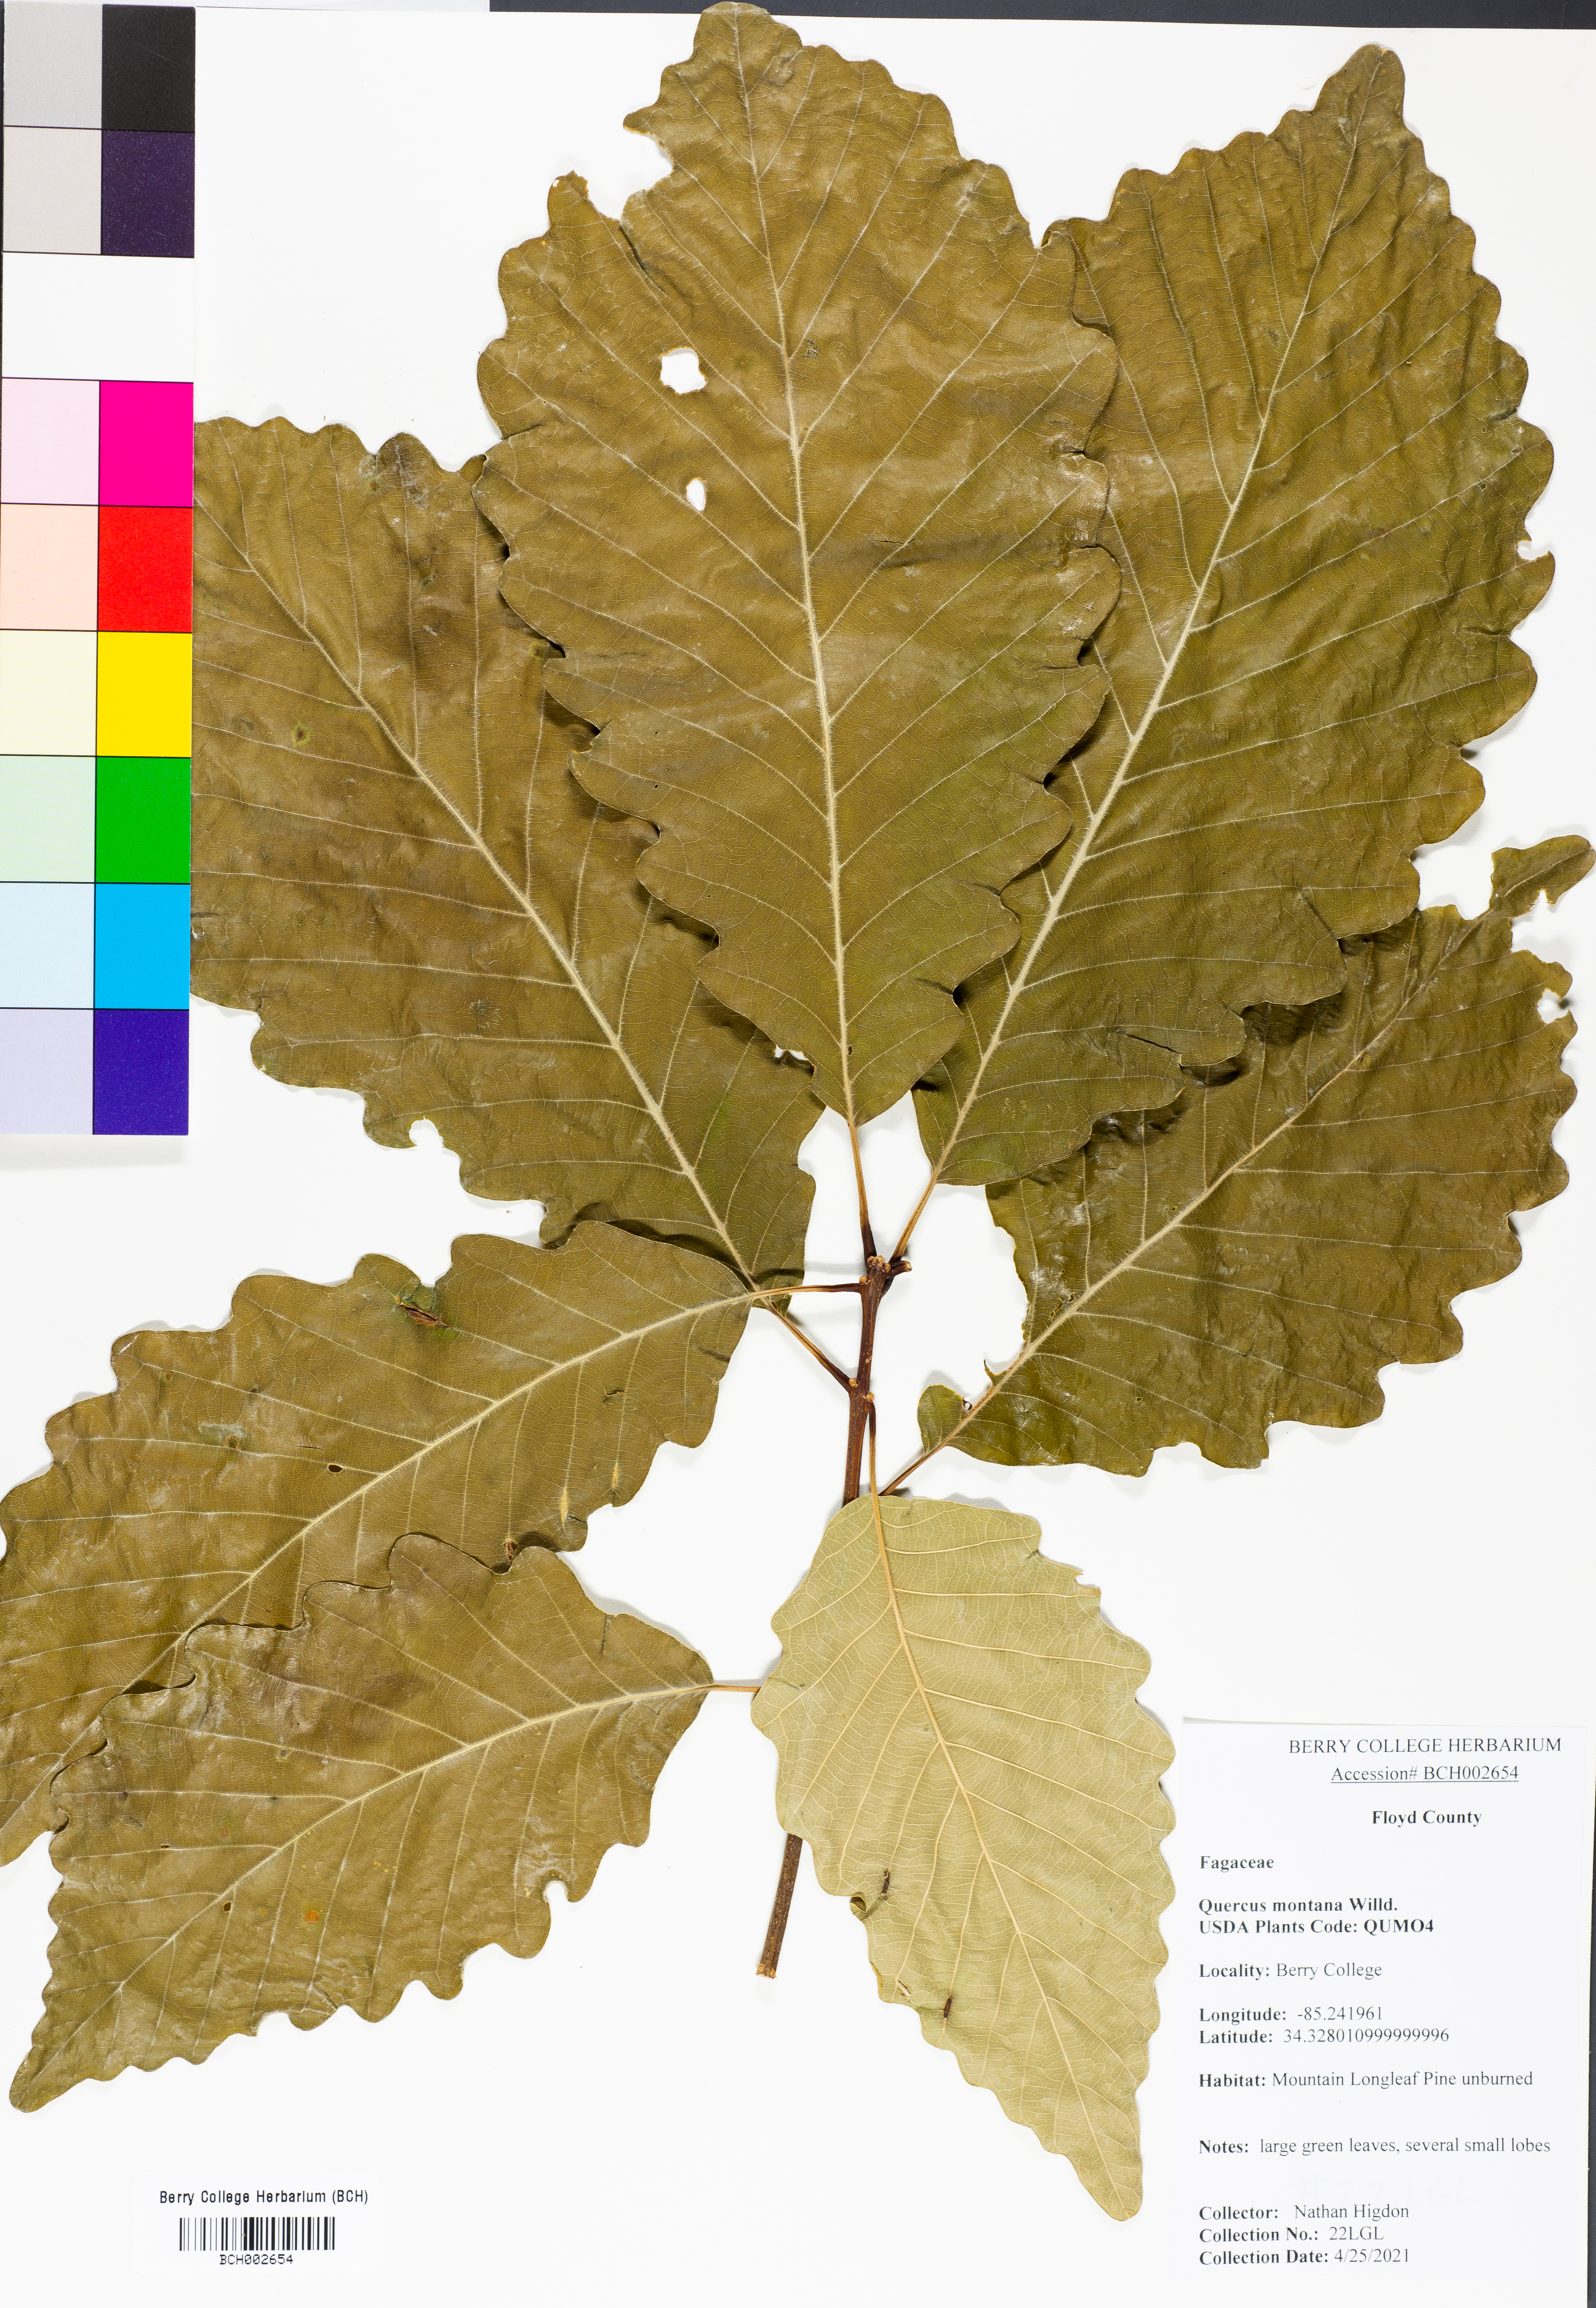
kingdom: Plantae
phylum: Tracheophyta
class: Magnoliopsida
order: Fagales
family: Fagaceae
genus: Quercus
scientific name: Quercus montana
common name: Chestnut oak
